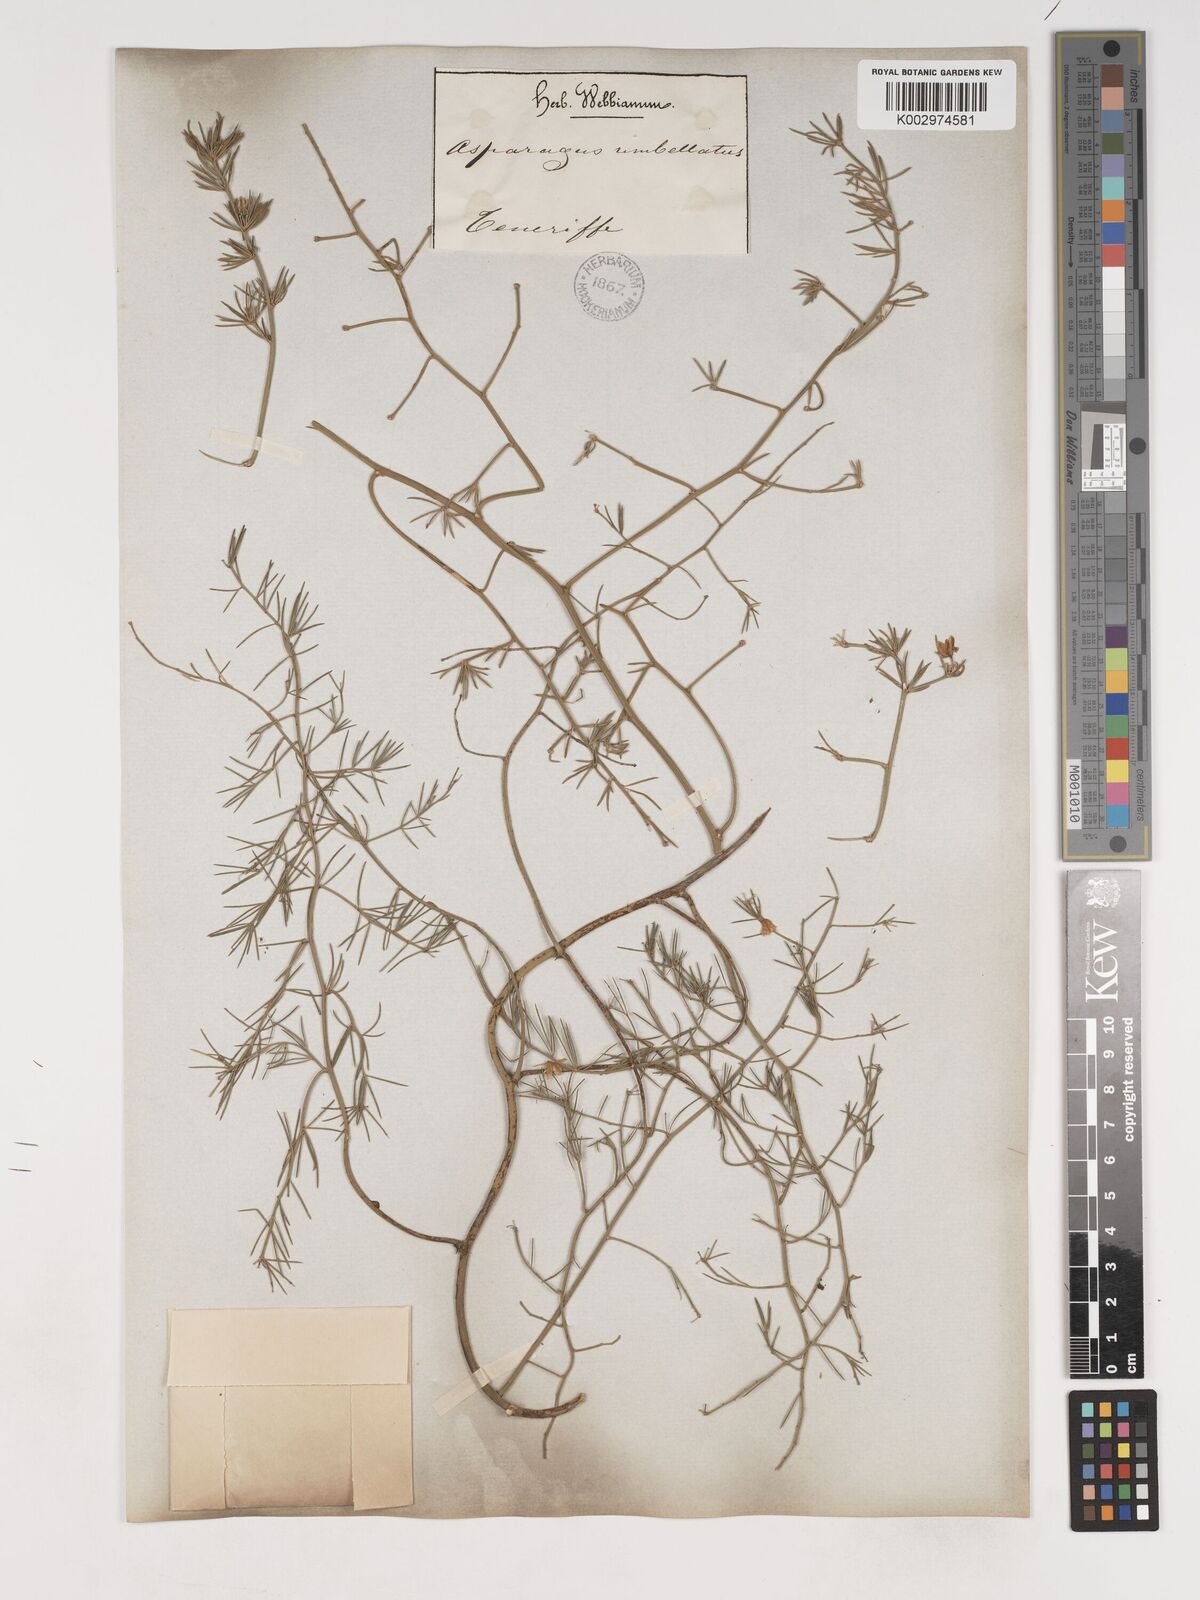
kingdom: Plantae
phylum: Tracheophyta
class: Liliopsida
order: Asparagales
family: Asparagaceae
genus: Asparagus
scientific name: Asparagus umbellatus
